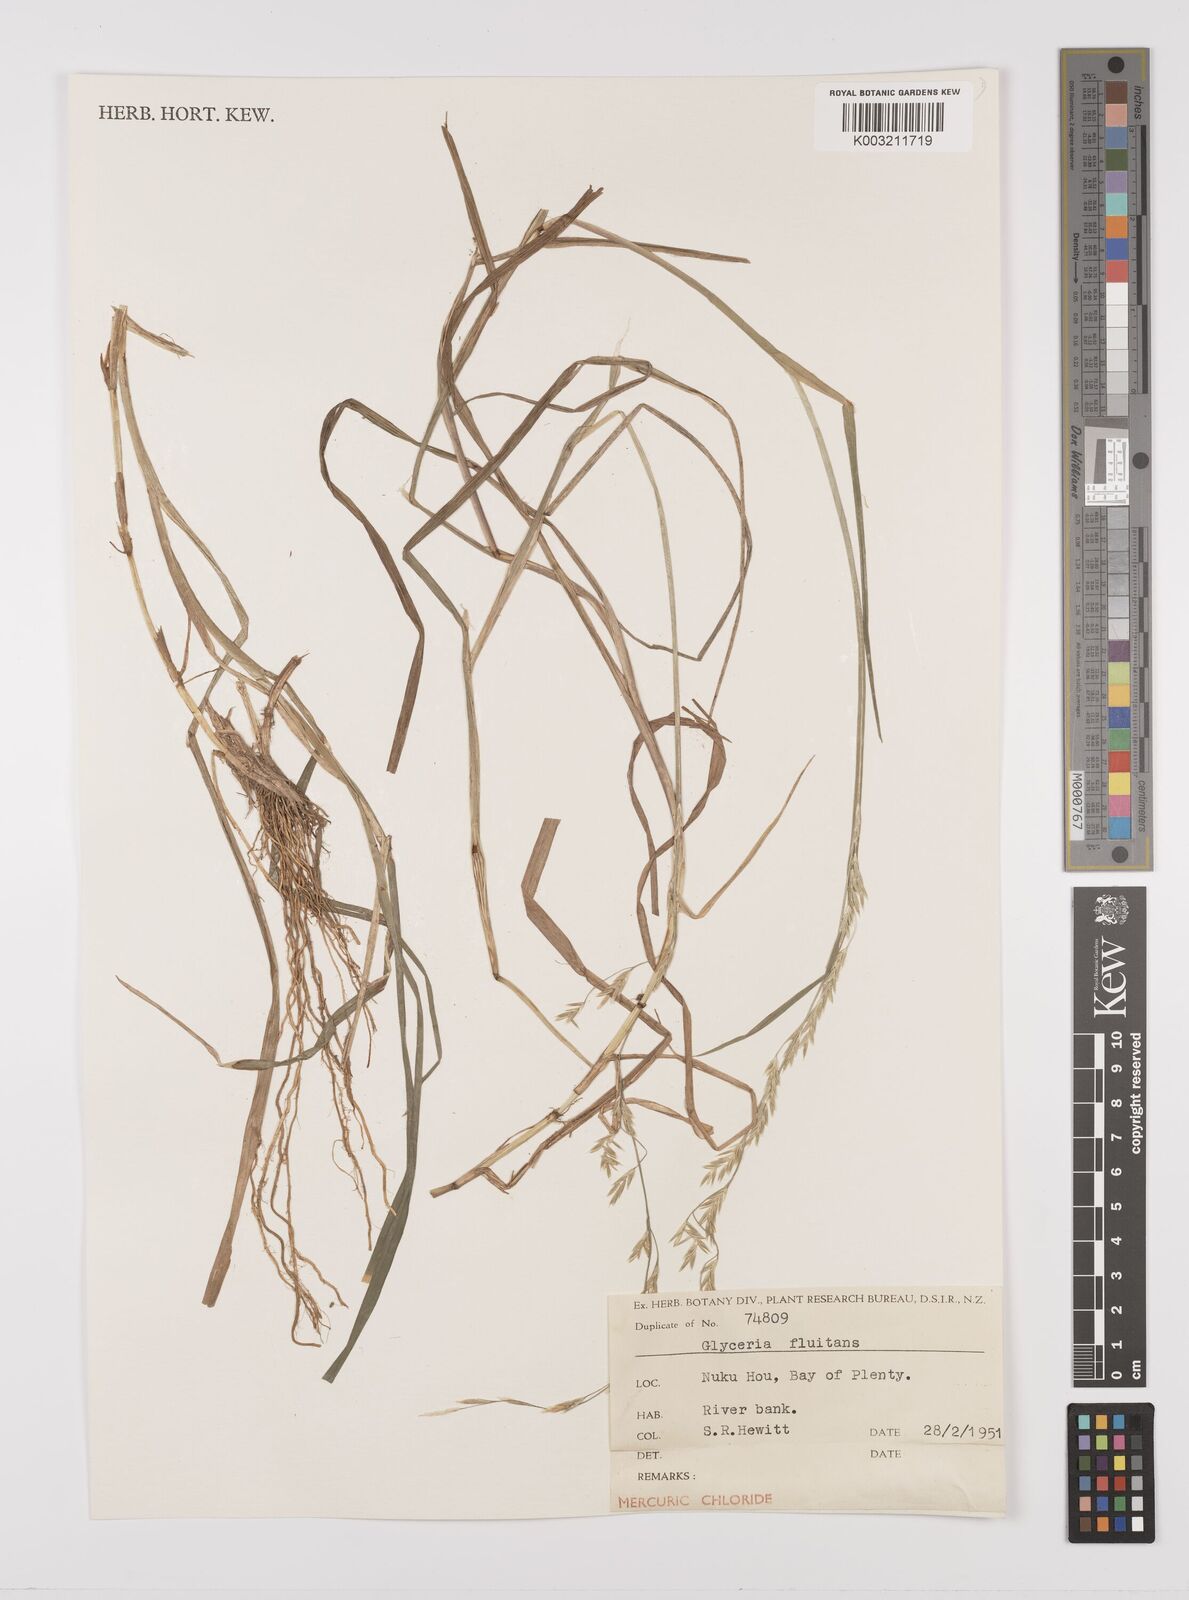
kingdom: Plantae
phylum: Tracheophyta
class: Liliopsida
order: Poales
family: Poaceae
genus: Glyceria
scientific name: Glyceria fluitans
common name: Floating sweet-grass
